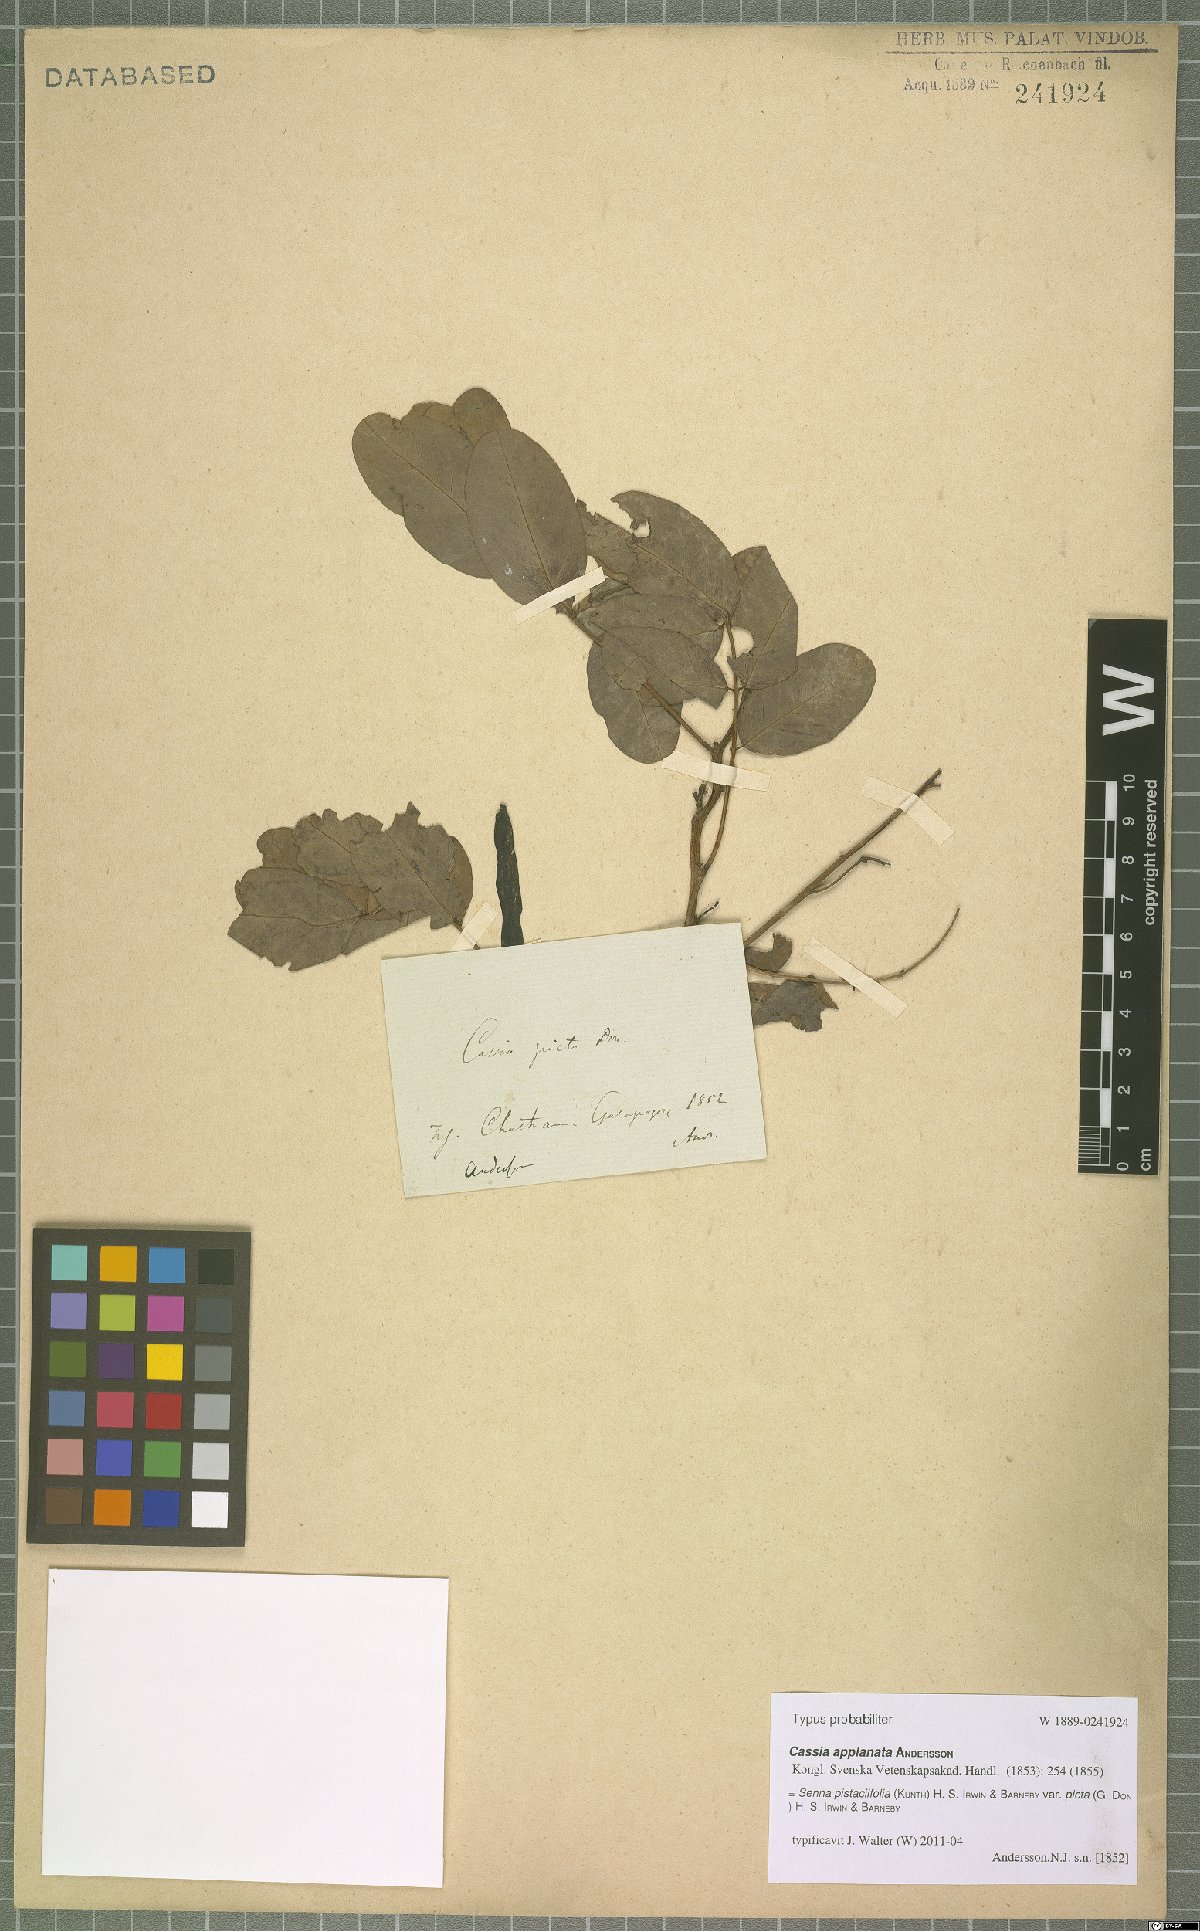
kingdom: Plantae
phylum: Tracheophyta
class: Magnoliopsida
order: Fabales
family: Fabaceae
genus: Senna
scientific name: Senna pistaciifolia
